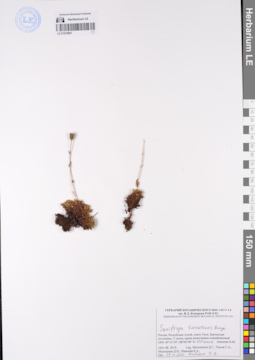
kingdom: Plantae
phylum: Tracheophyta
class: Magnoliopsida
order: Saxifragales
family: Saxifragaceae
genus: Saxifraga
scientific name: Saxifraga terektensis
